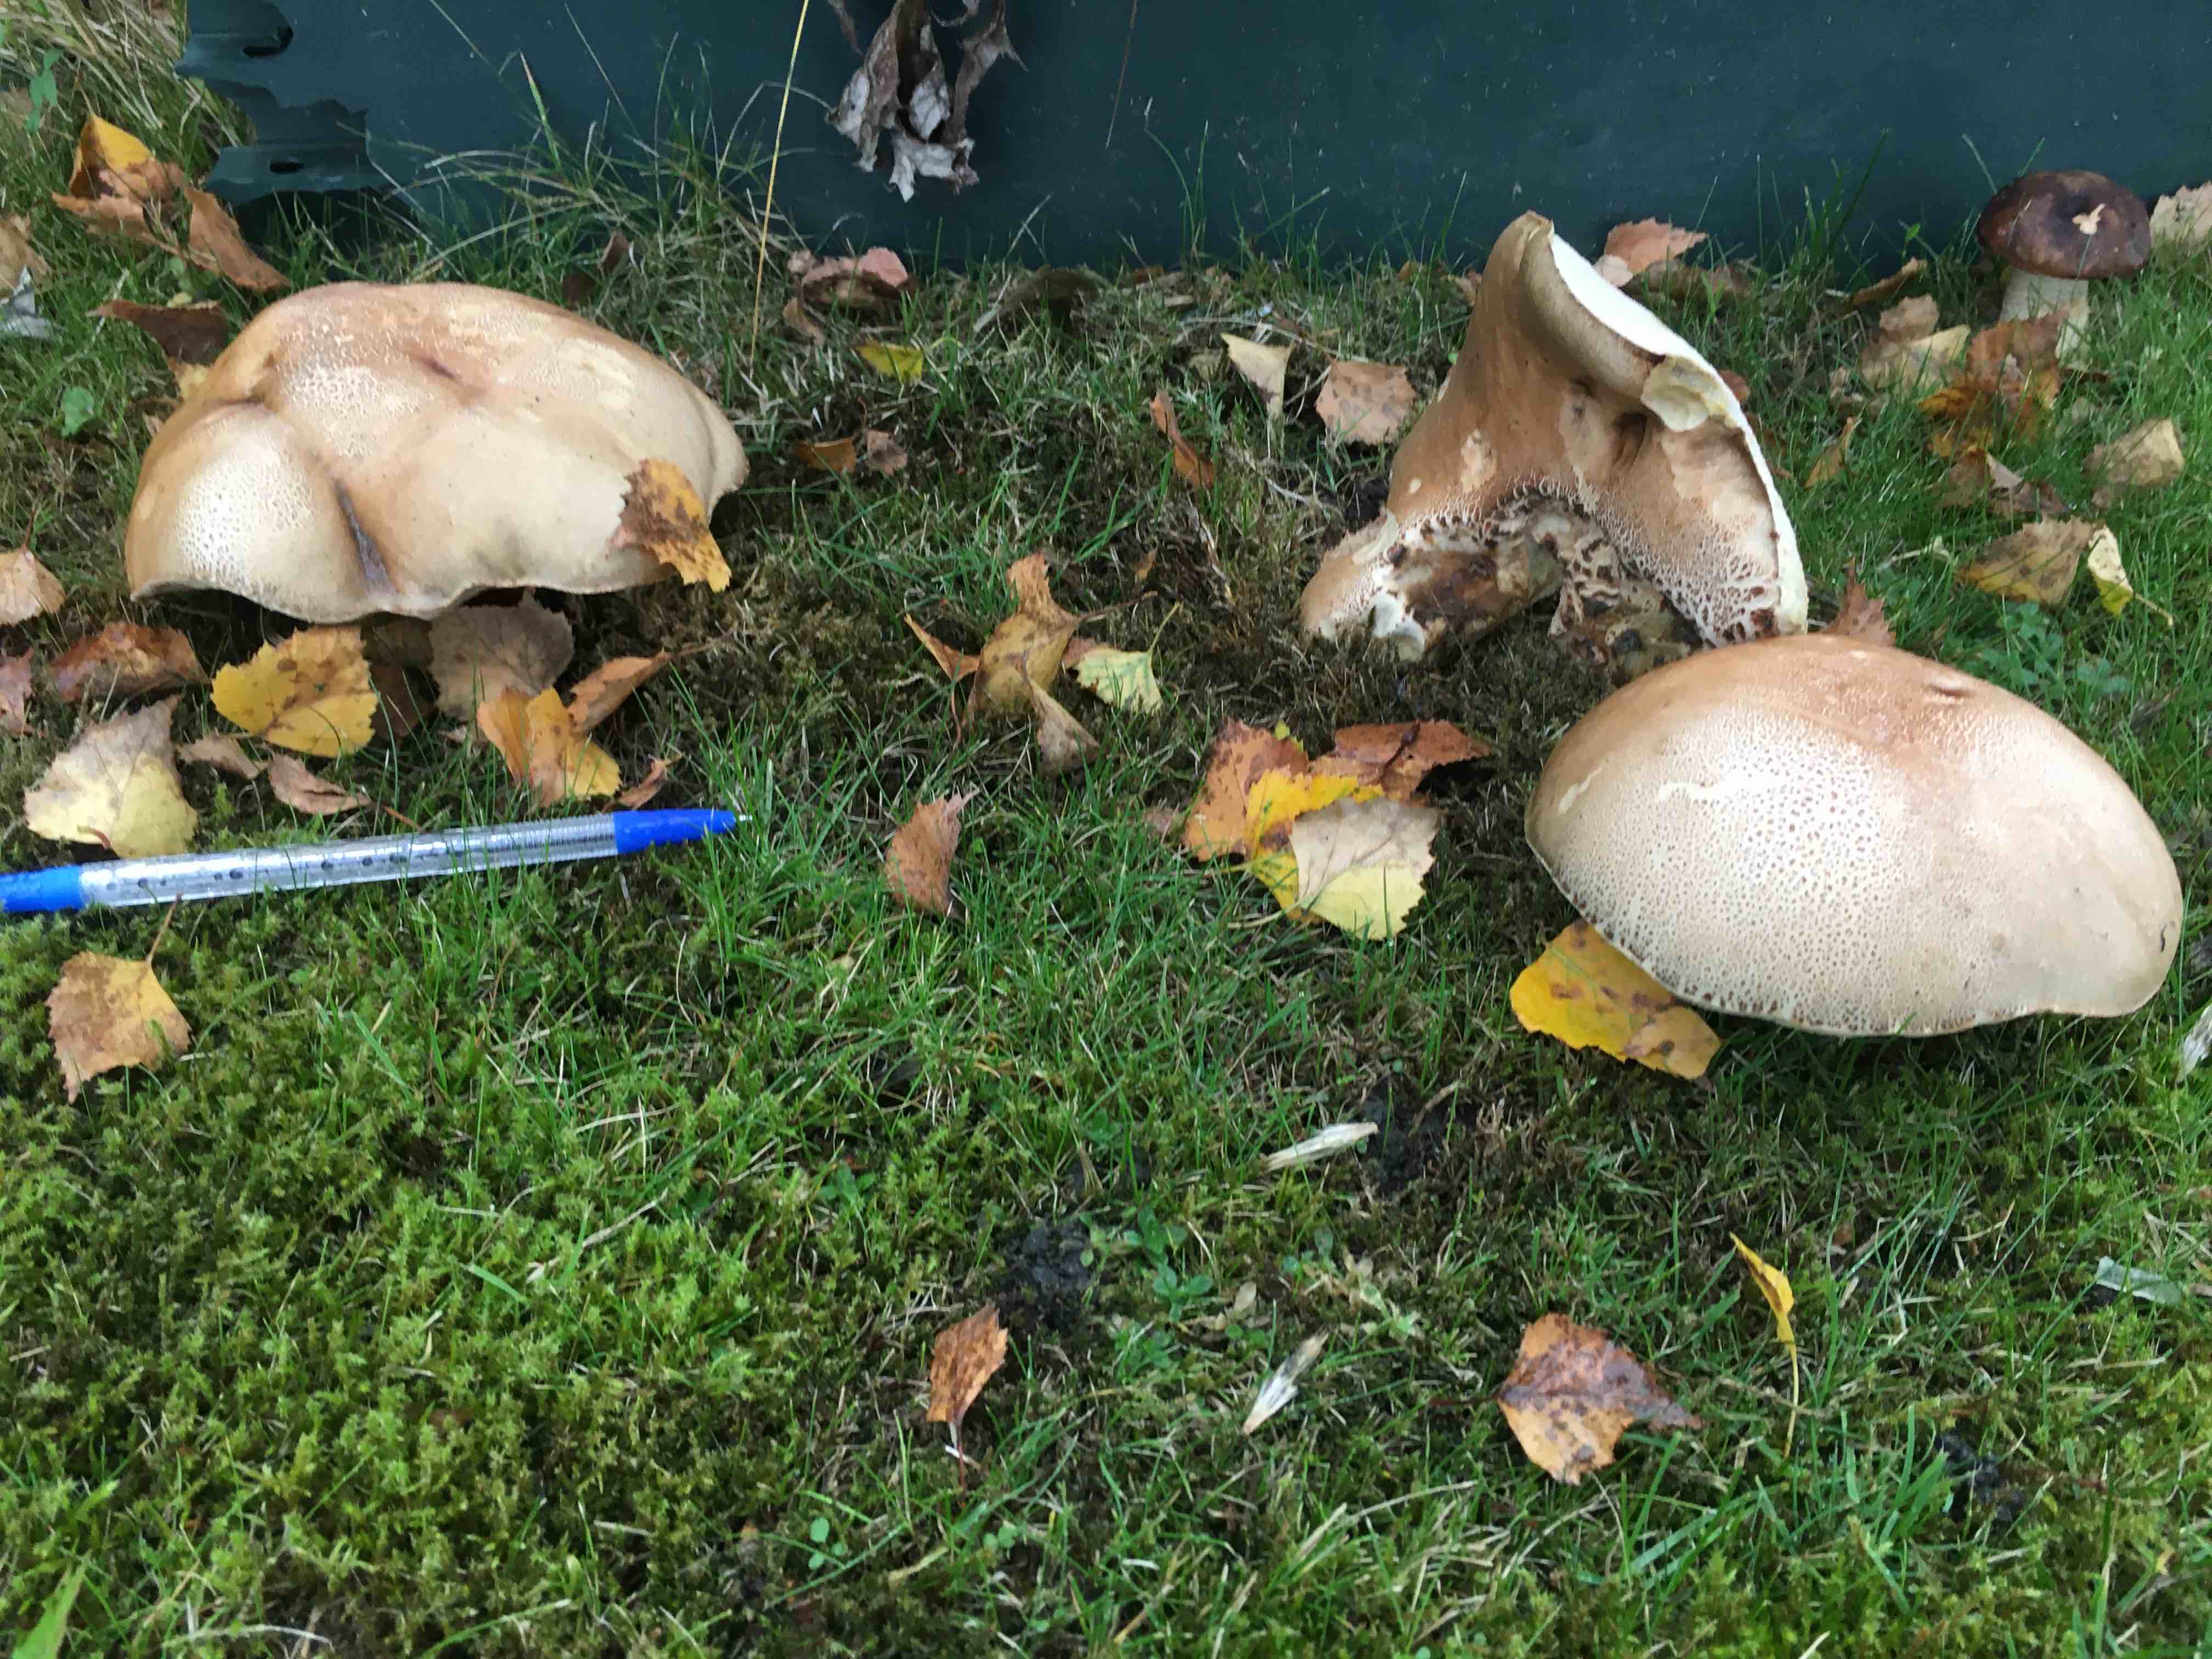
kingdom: Fungi
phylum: Basidiomycota
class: Agaricomycetes
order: Boletales
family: Boletaceae
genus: Leccinum
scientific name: Leccinum
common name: skælrørhat
